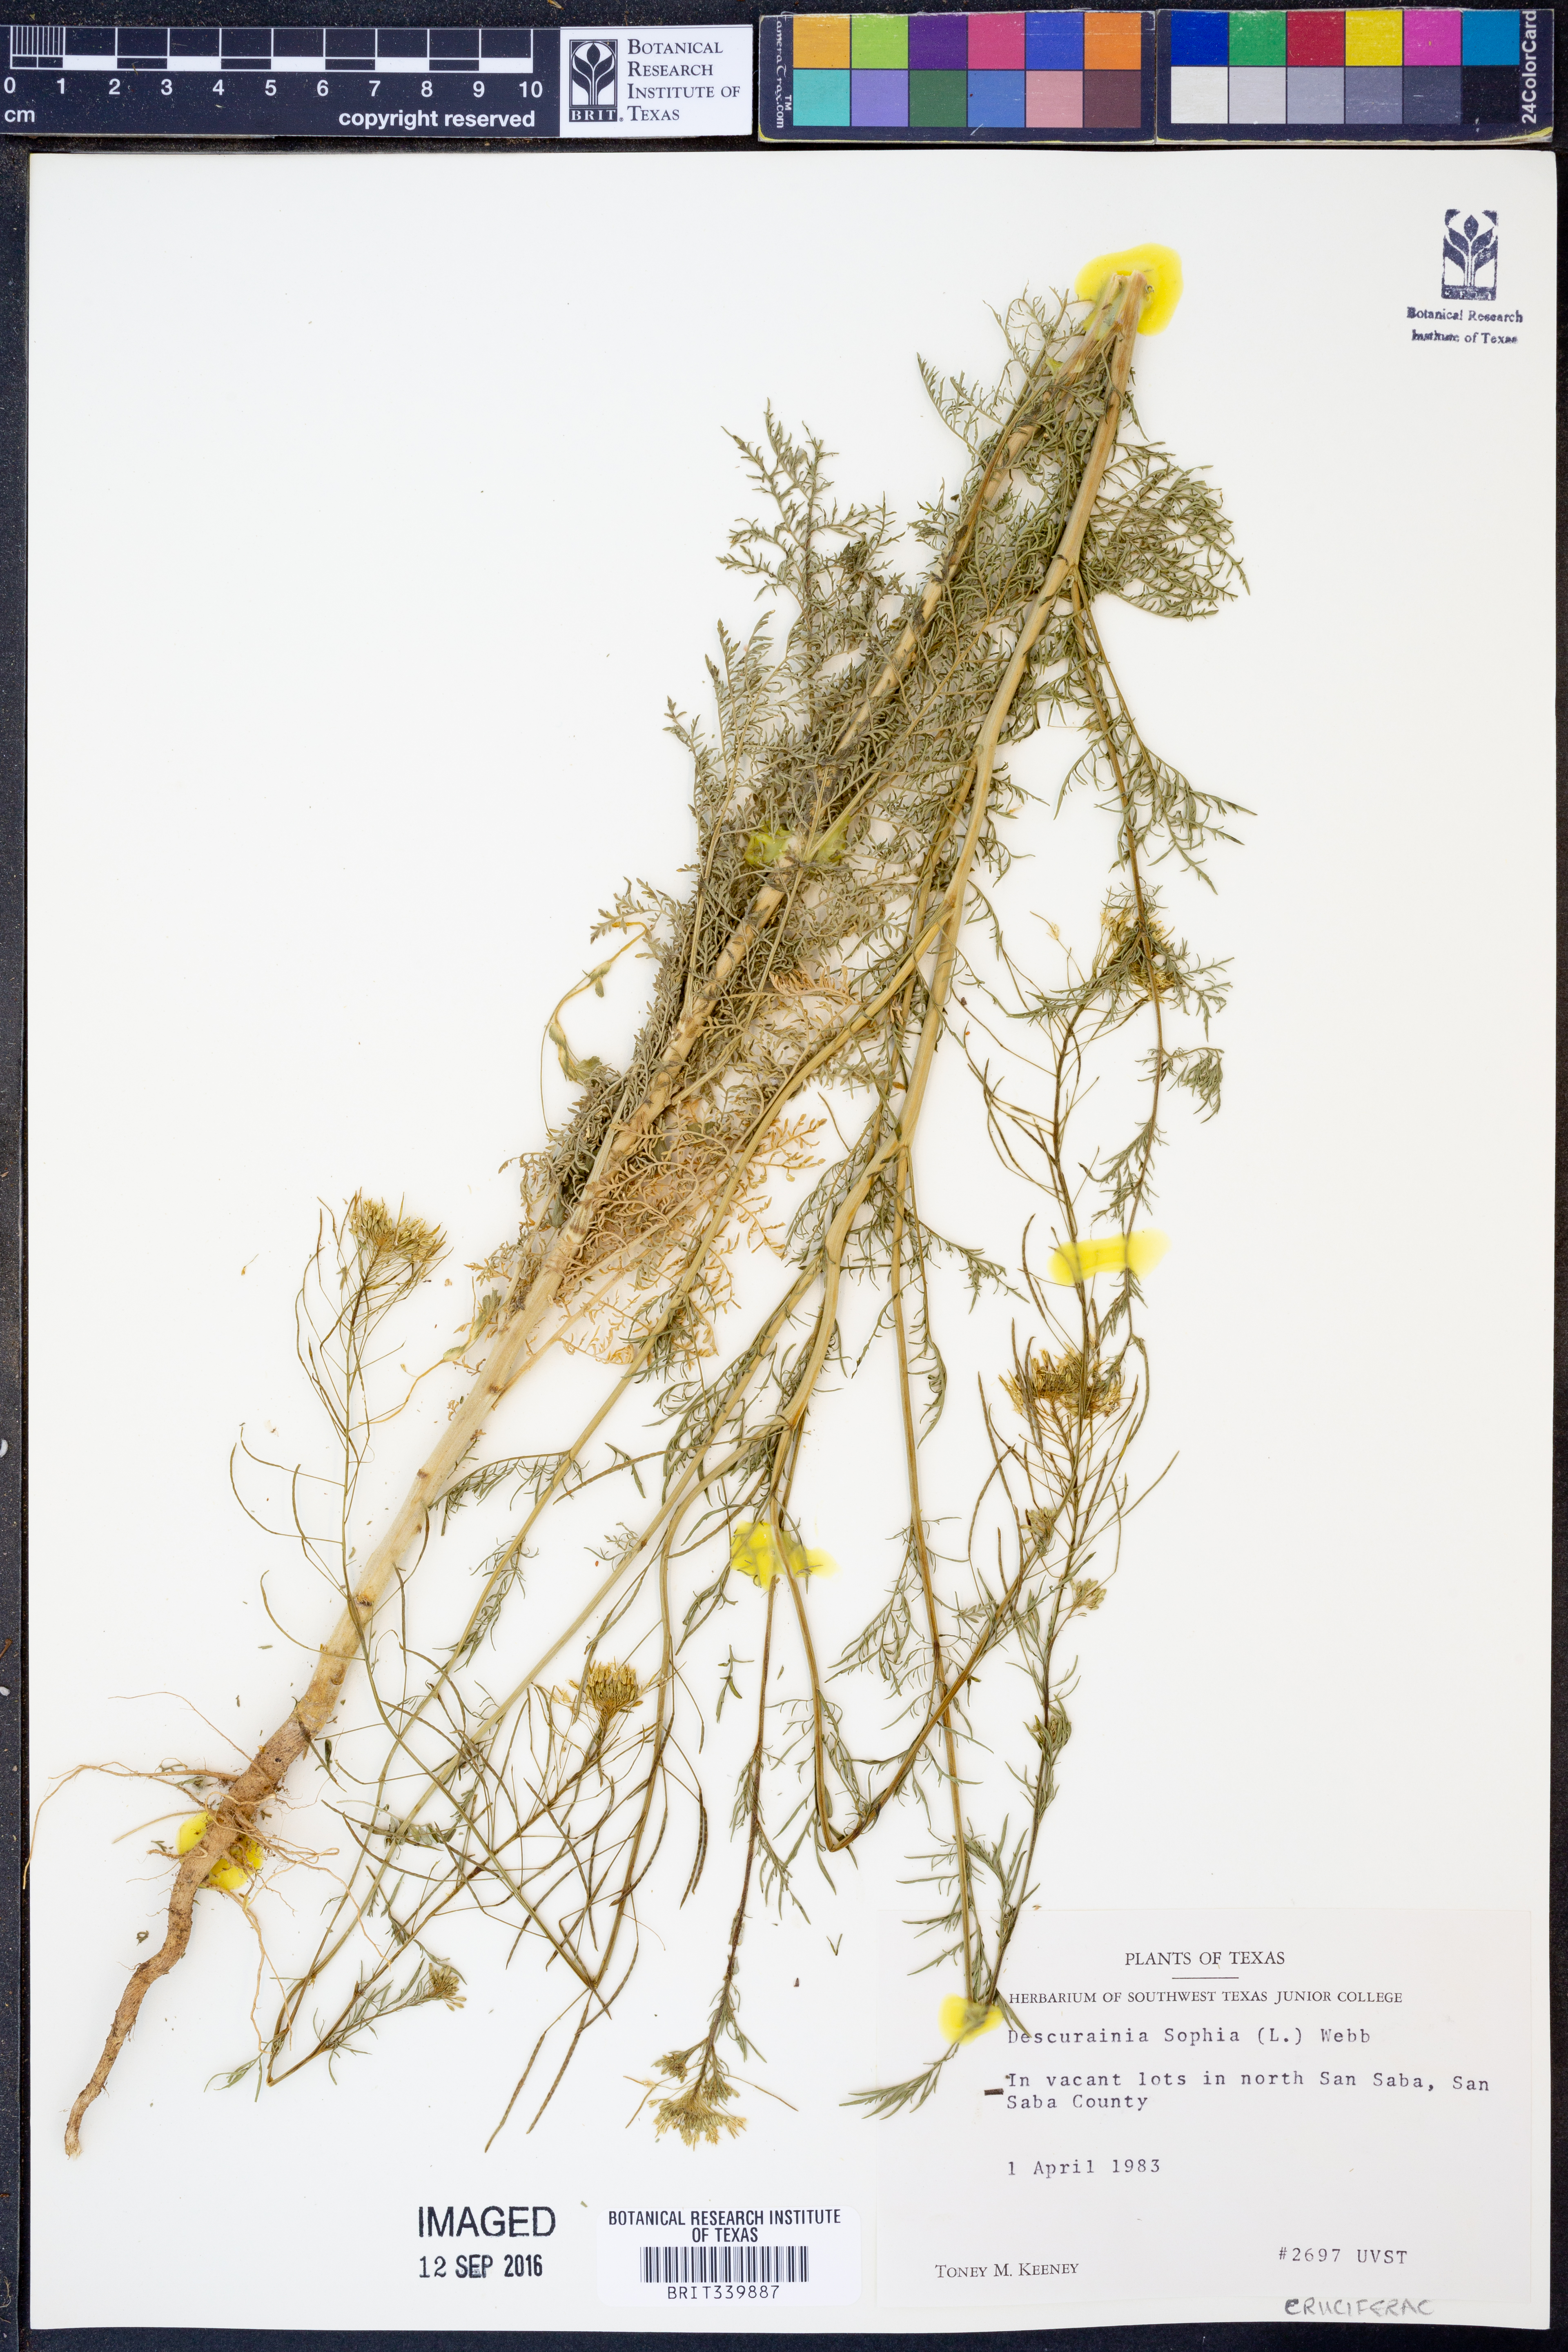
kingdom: Plantae
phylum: Tracheophyta
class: Magnoliopsida
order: Brassicales
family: Brassicaceae
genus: Descurainia
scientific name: Descurainia sophia
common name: Flixweed
